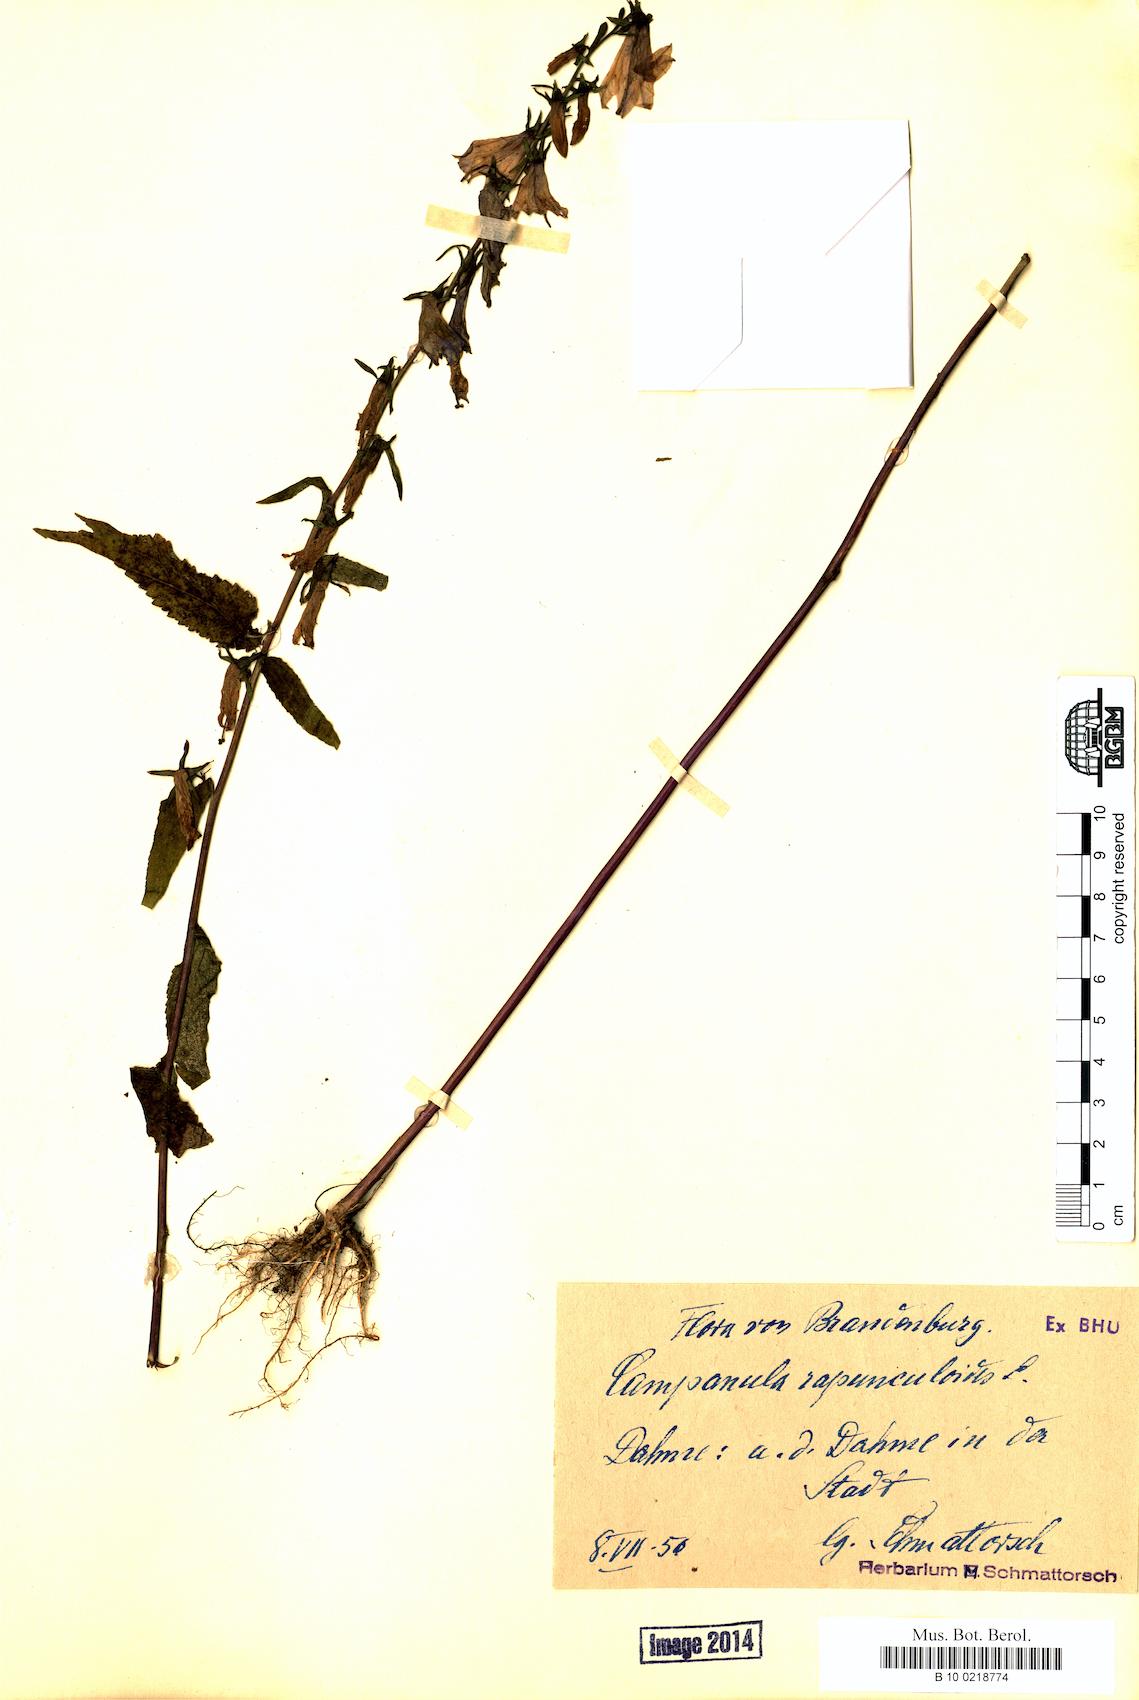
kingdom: Plantae
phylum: Tracheophyta
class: Magnoliopsida
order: Asterales
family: Campanulaceae
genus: Campanula
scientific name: Campanula rapunculoides
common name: Creeping bellflower
